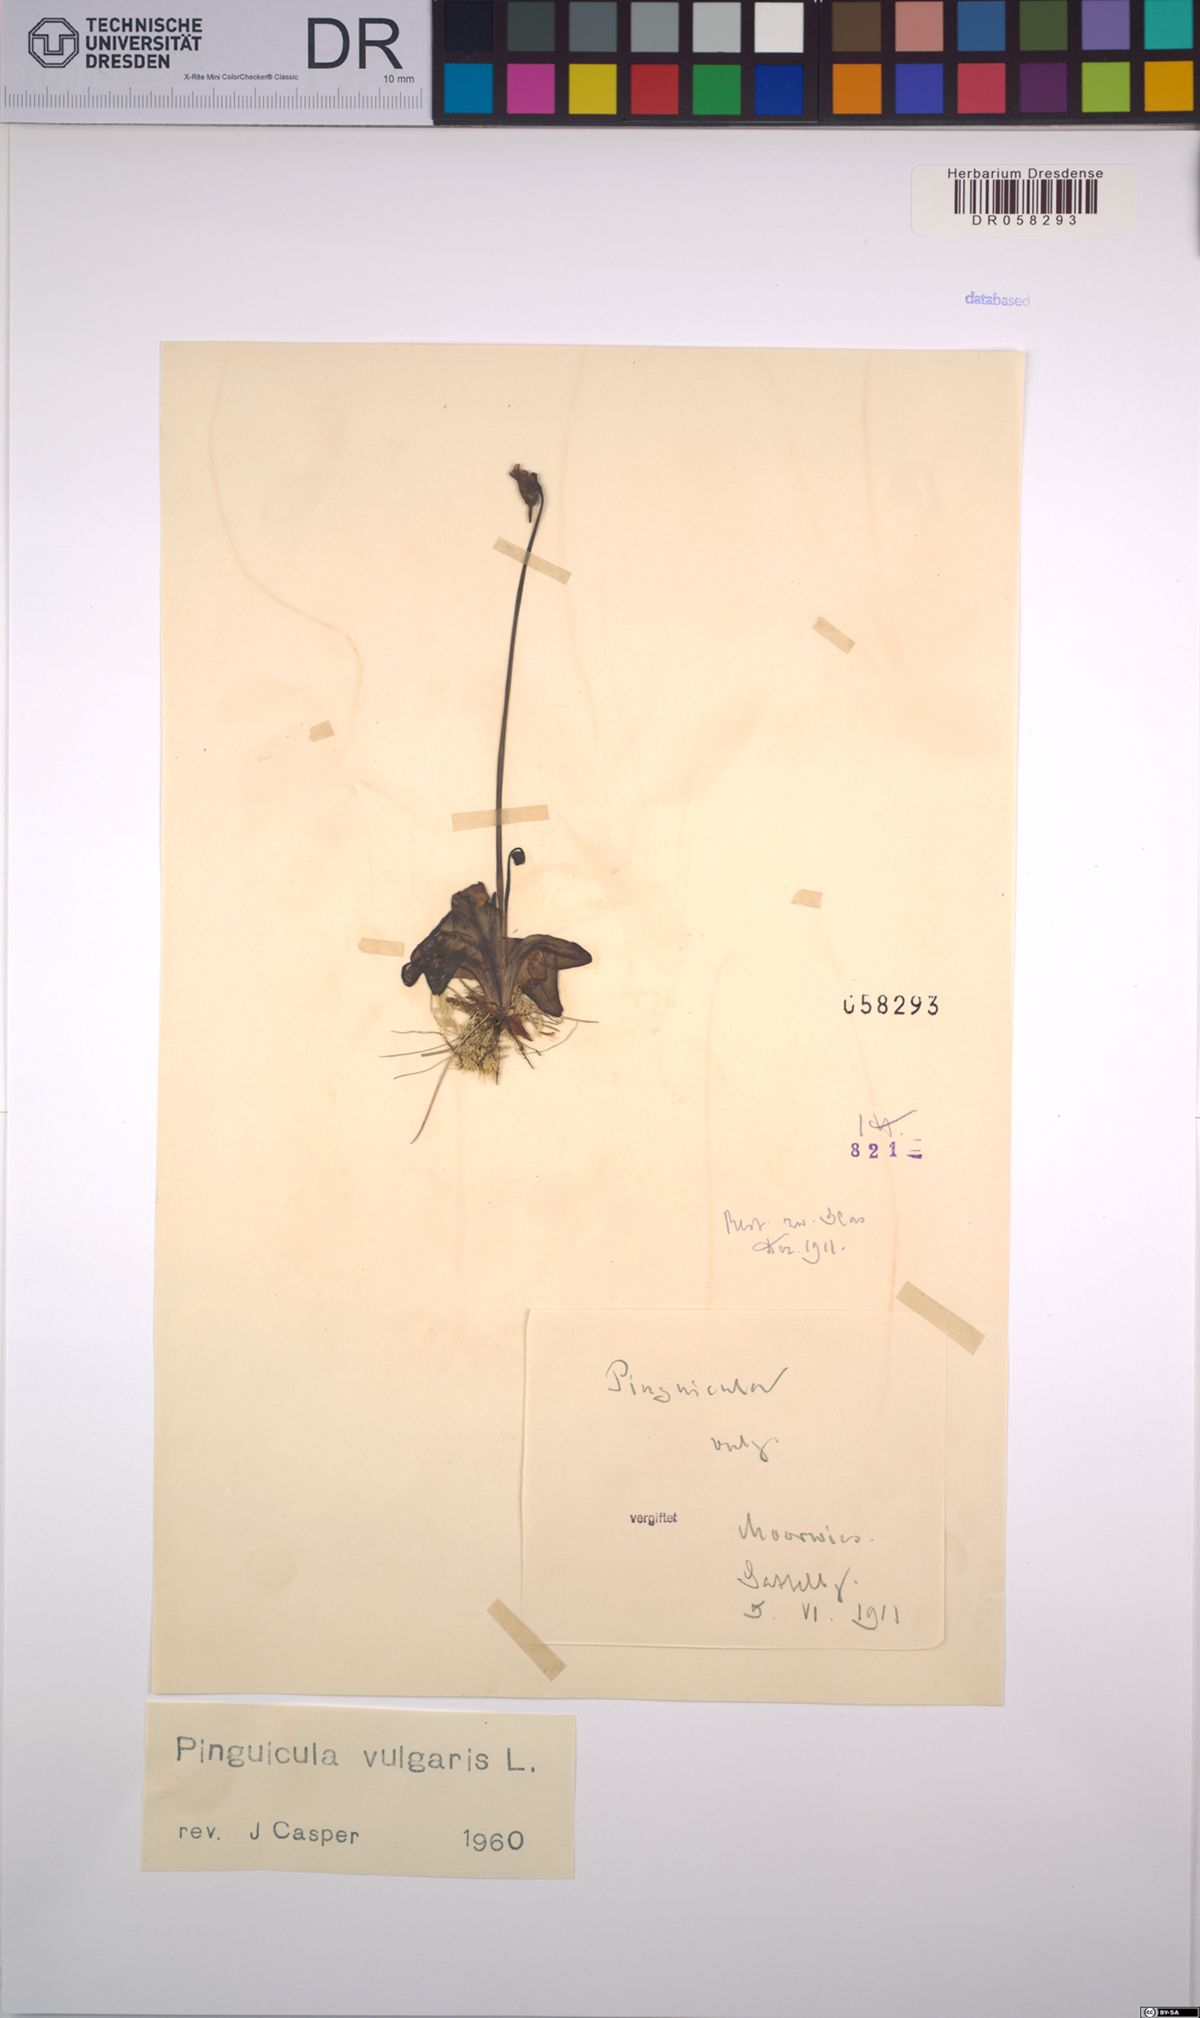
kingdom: Plantae
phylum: Tracheophyta
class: Magnoliopsida
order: Lamiales
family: Lentibulariaceae
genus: Pinguicula
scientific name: Pinguicula vulgaris
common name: Common butterwort
